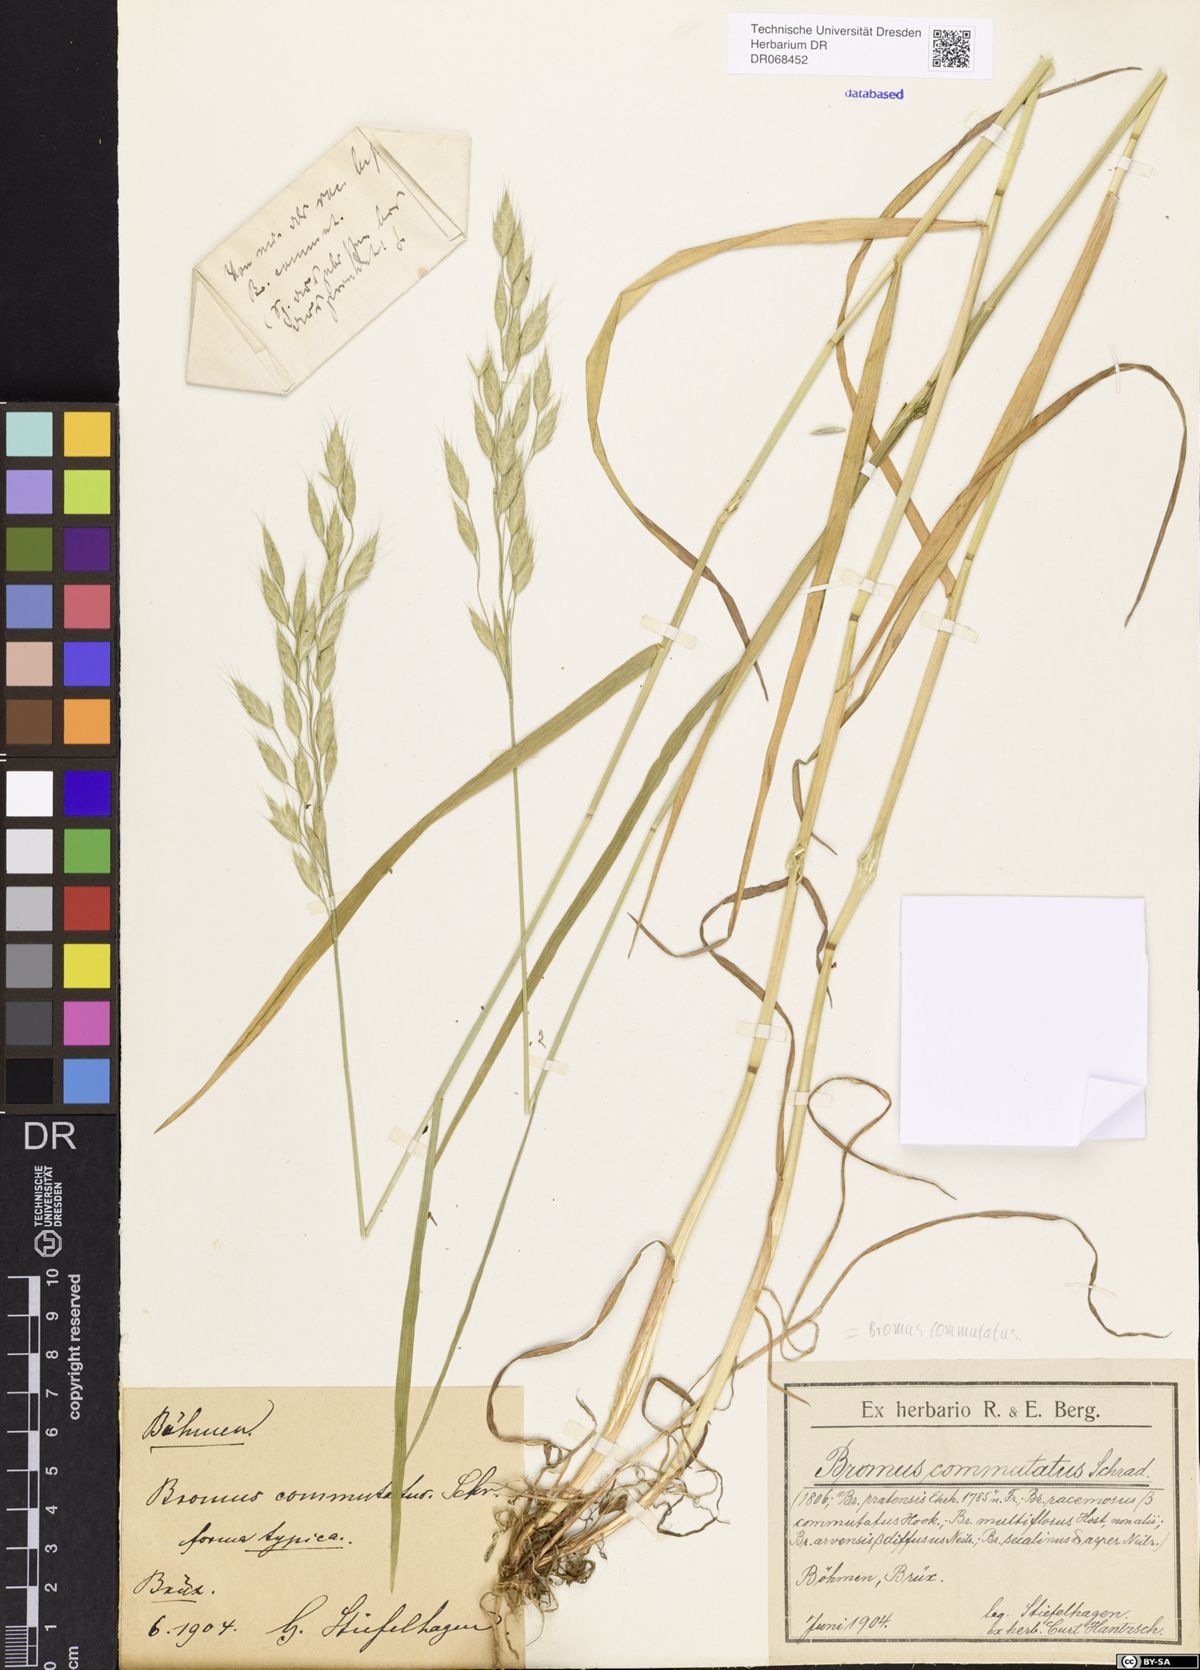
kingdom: Plantae
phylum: Tracheophyta
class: Liliopsida
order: Poales
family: Poaceae
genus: Bromus
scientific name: Bromus commutatus
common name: Meadow brome
